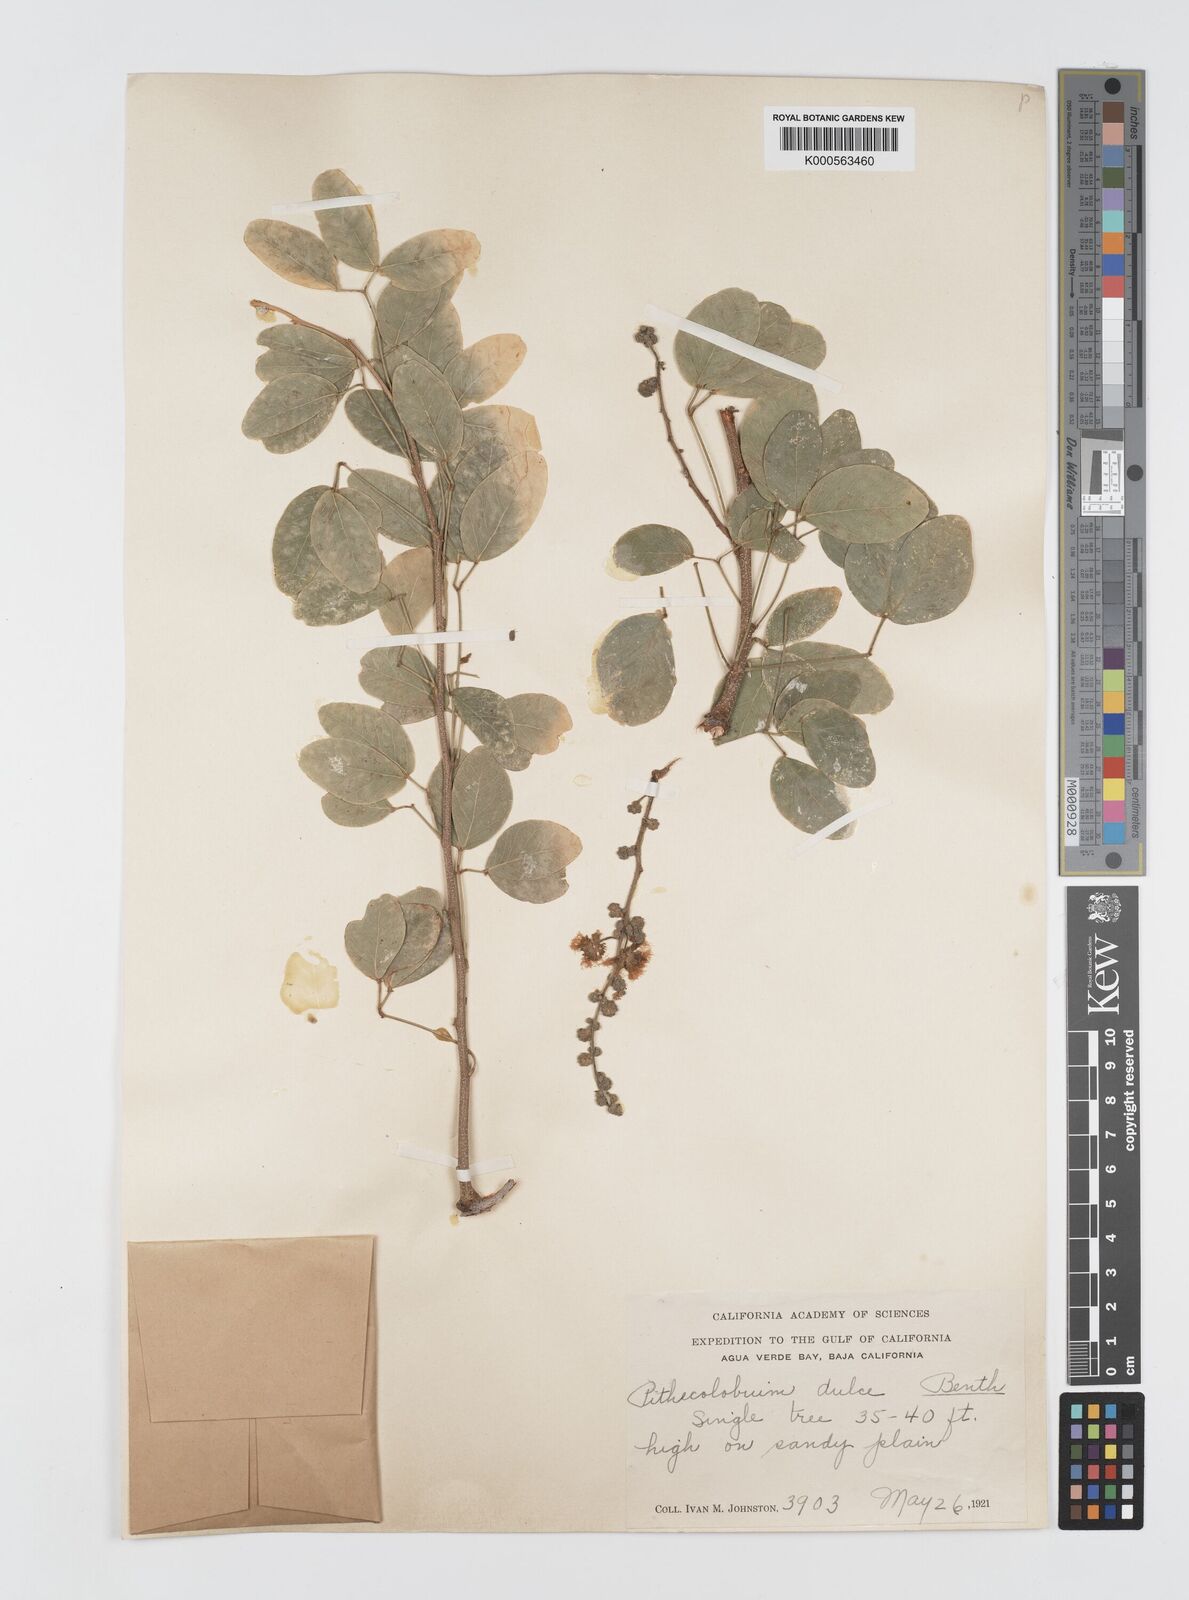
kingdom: Plantae
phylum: Tracheophyta
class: Magnoliopsida
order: Fabales
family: Fabaceae
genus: Pithecellobium
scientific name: Pithecellobium dulce
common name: Monkeypod
